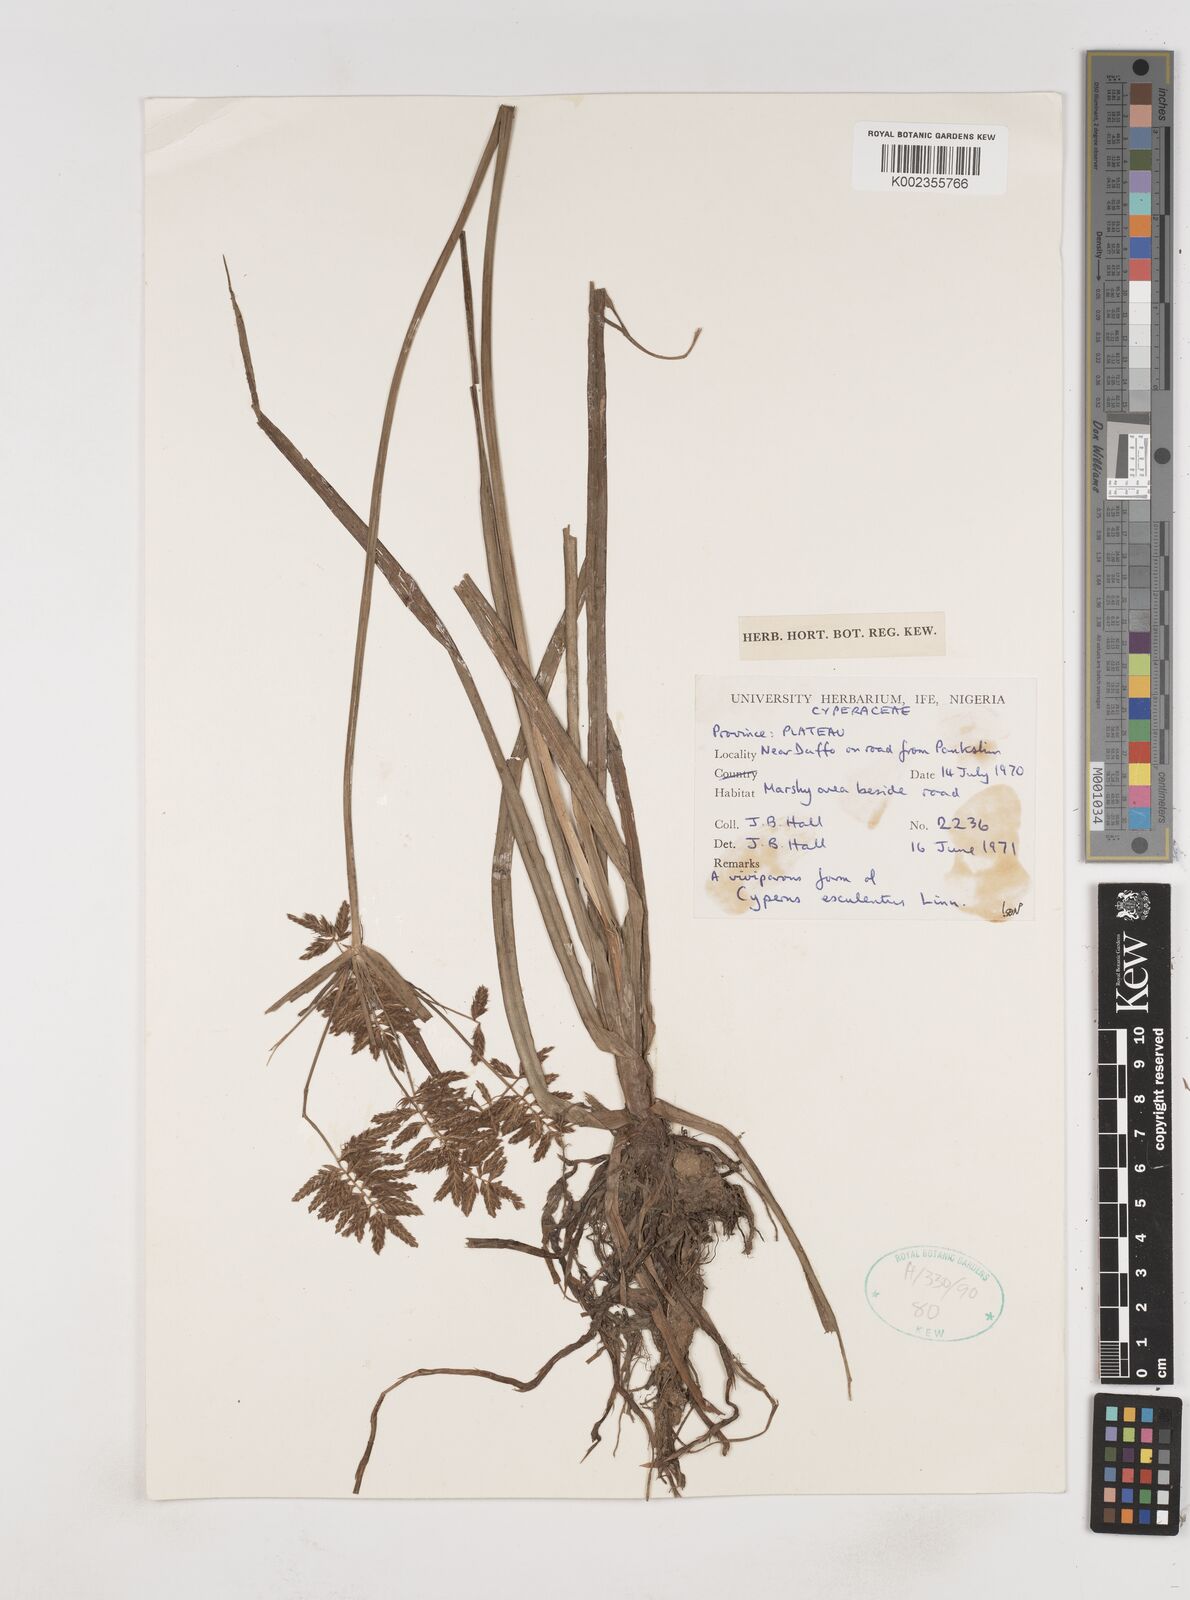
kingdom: Plantae
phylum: Tracheophyta
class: Liliopsida
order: Poales
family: Cyperaceae
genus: Cyperus
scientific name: Cyperus esculentus
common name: Yellow nutsedge
